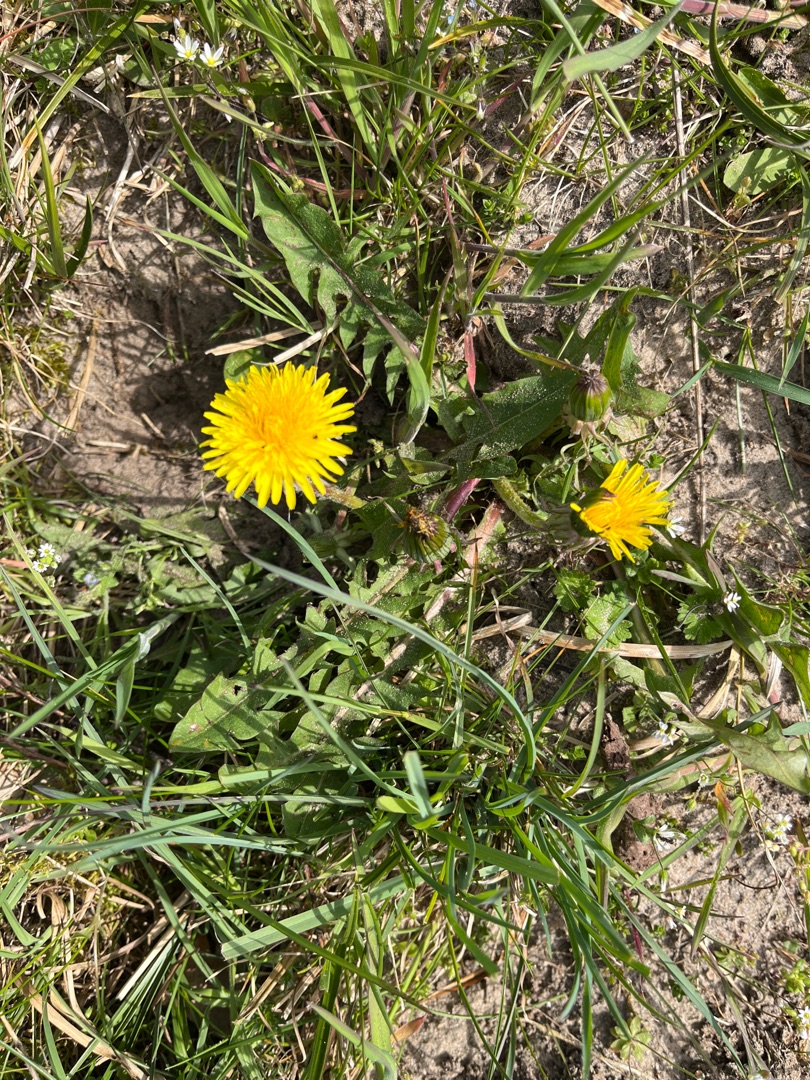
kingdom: Plantae
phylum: Tracheophyta
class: Magnoliopsida
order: Asterales
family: Asteraceae
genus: Taraxacum
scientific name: Taraxacum
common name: Mælkebøtteslægten
